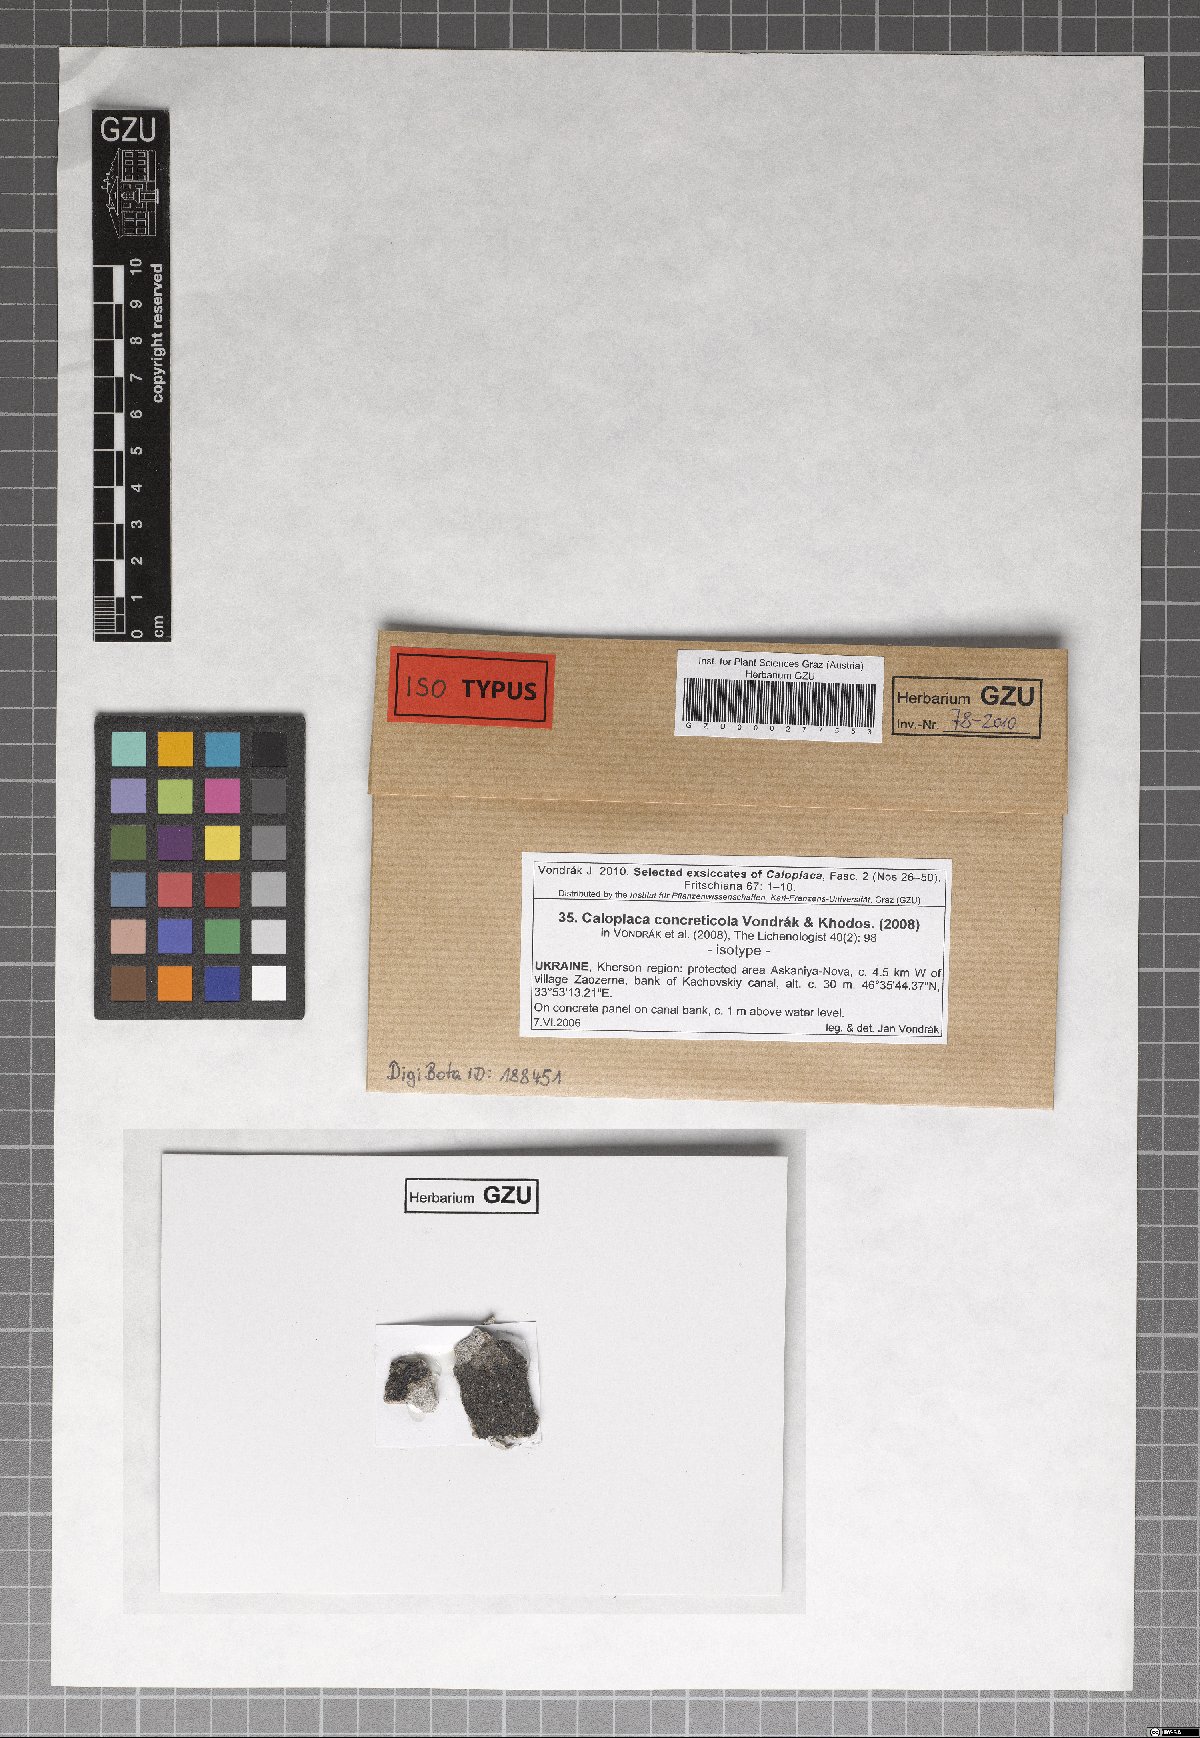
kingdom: Fungi
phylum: Ascomycota
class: Lecanoromycetes
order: Teloschistales
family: Teloschistaceae
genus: Pyrenodesmia
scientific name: Pyrenodesmia concreticola
